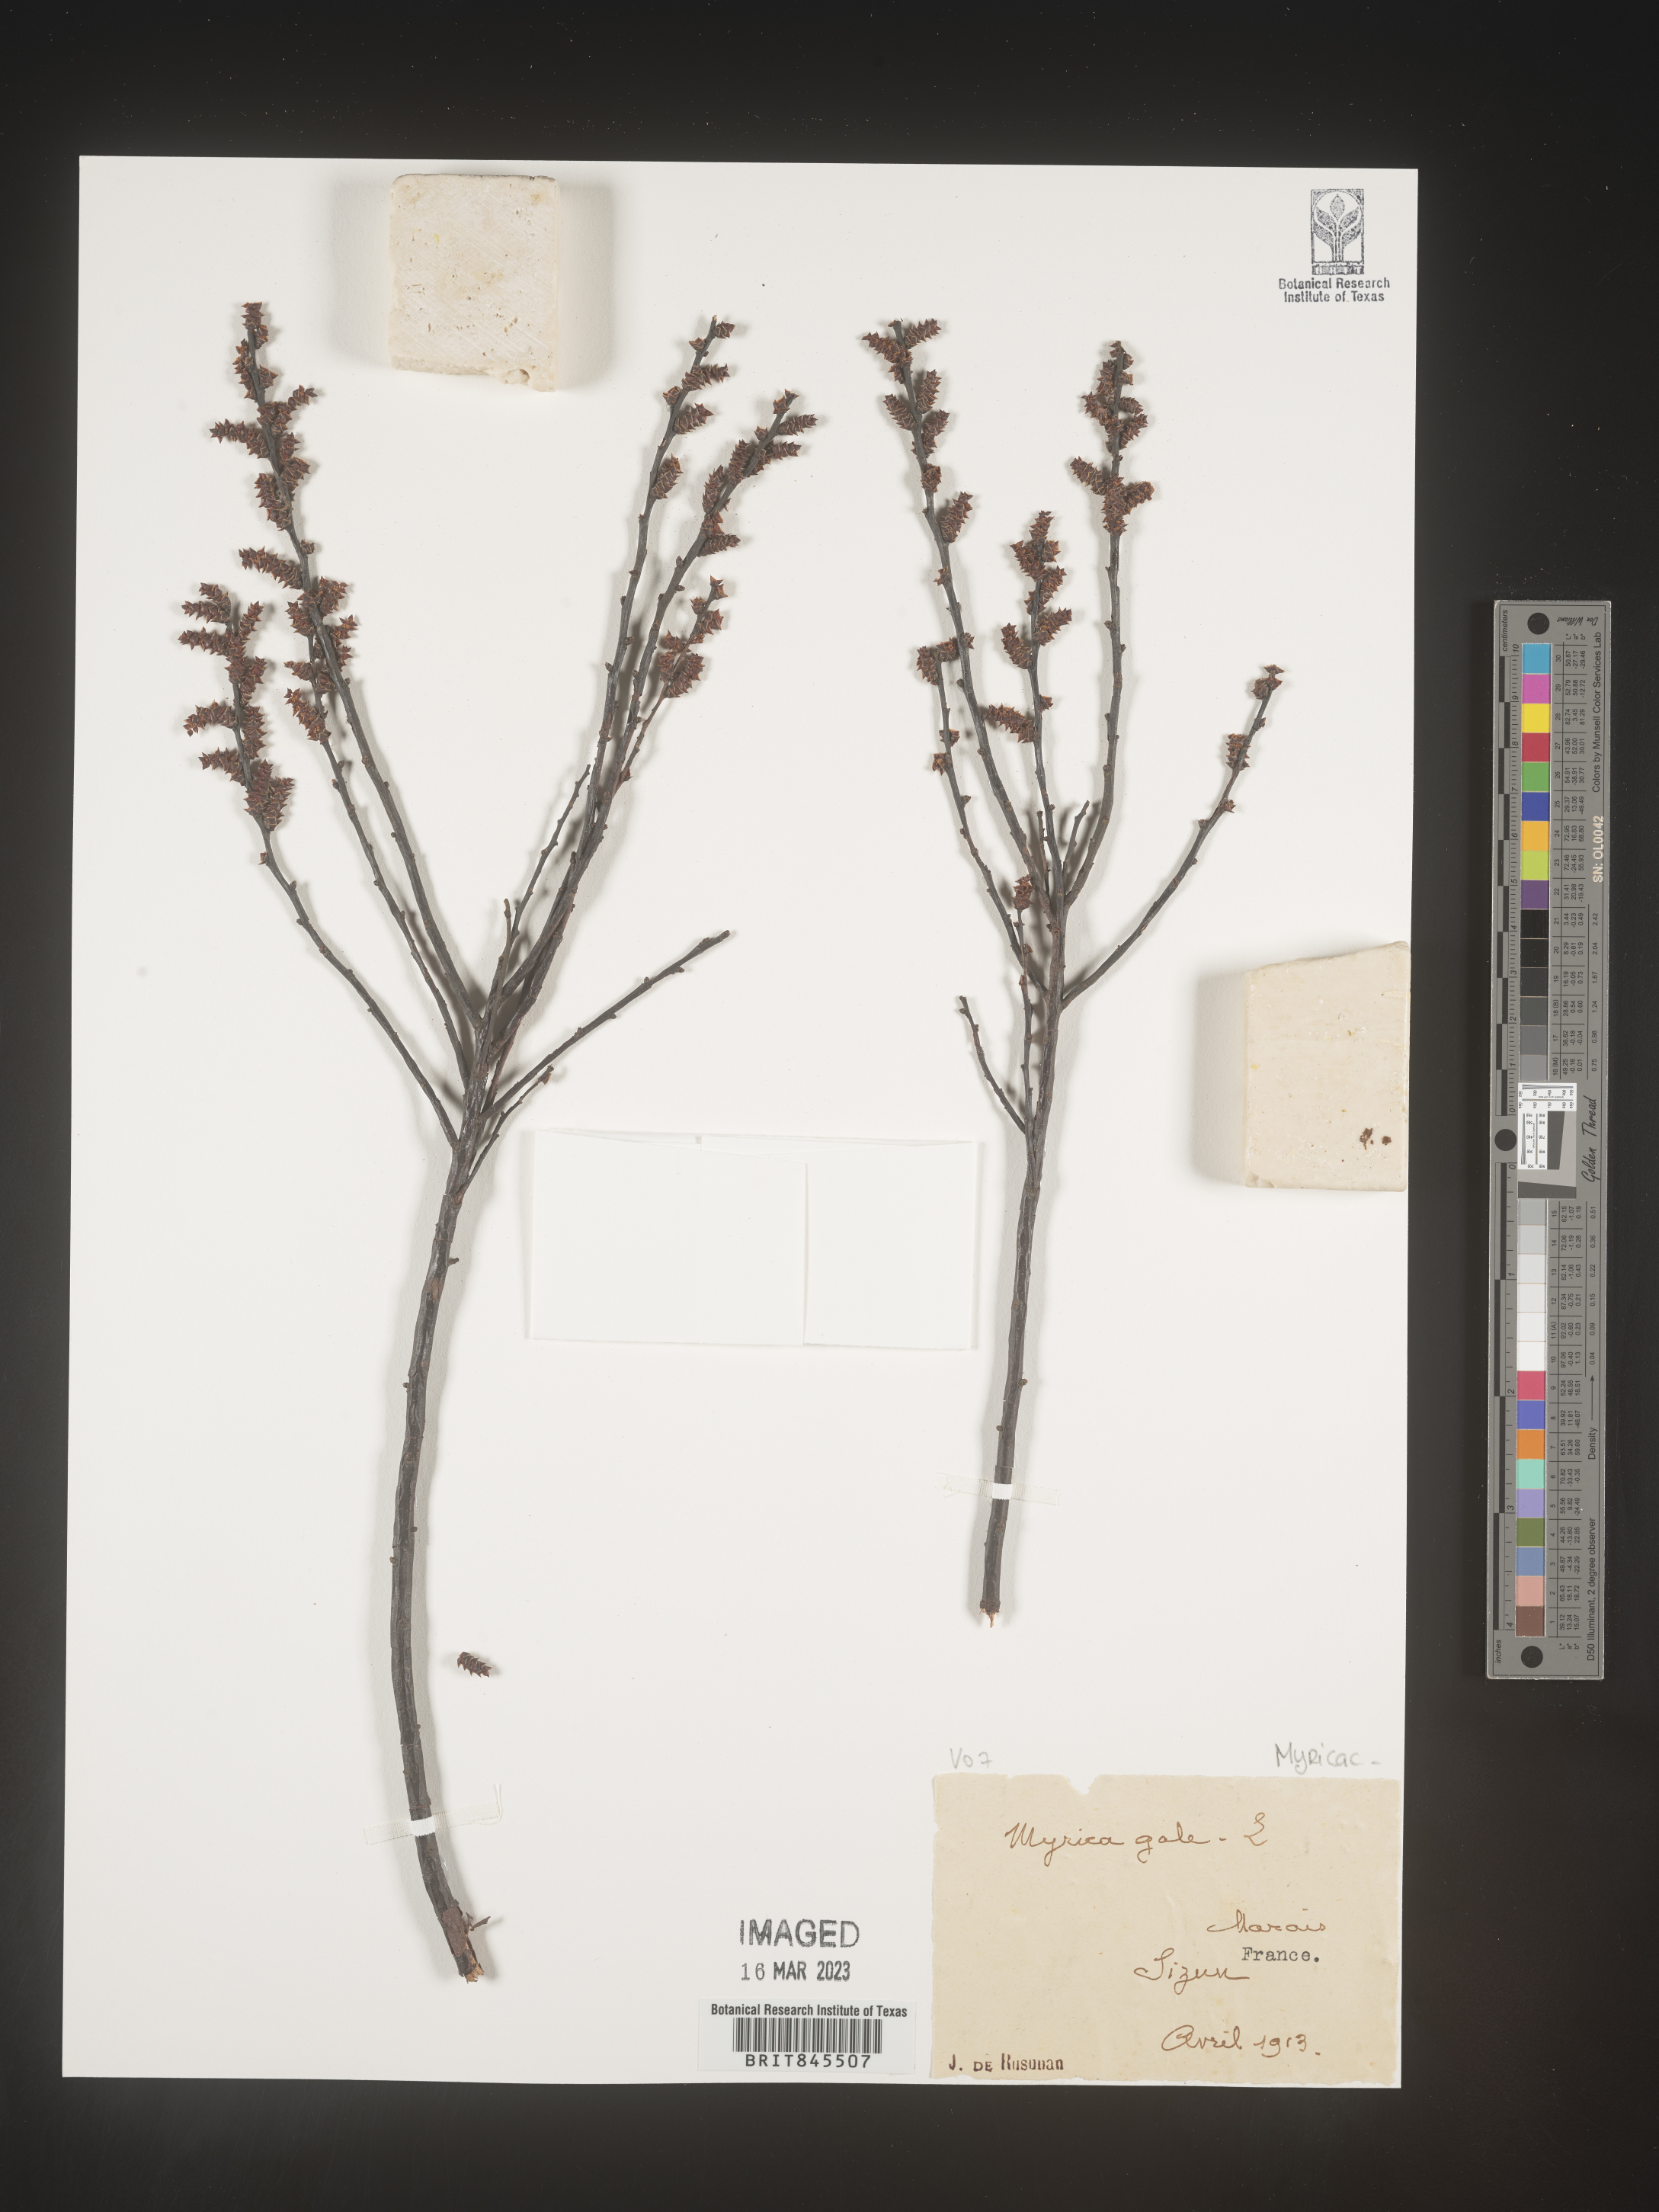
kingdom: Plantae
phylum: Tracheophyta
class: Magnoliopsida
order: Fagales
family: Myricaceae
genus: Myrica
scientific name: Myrica
